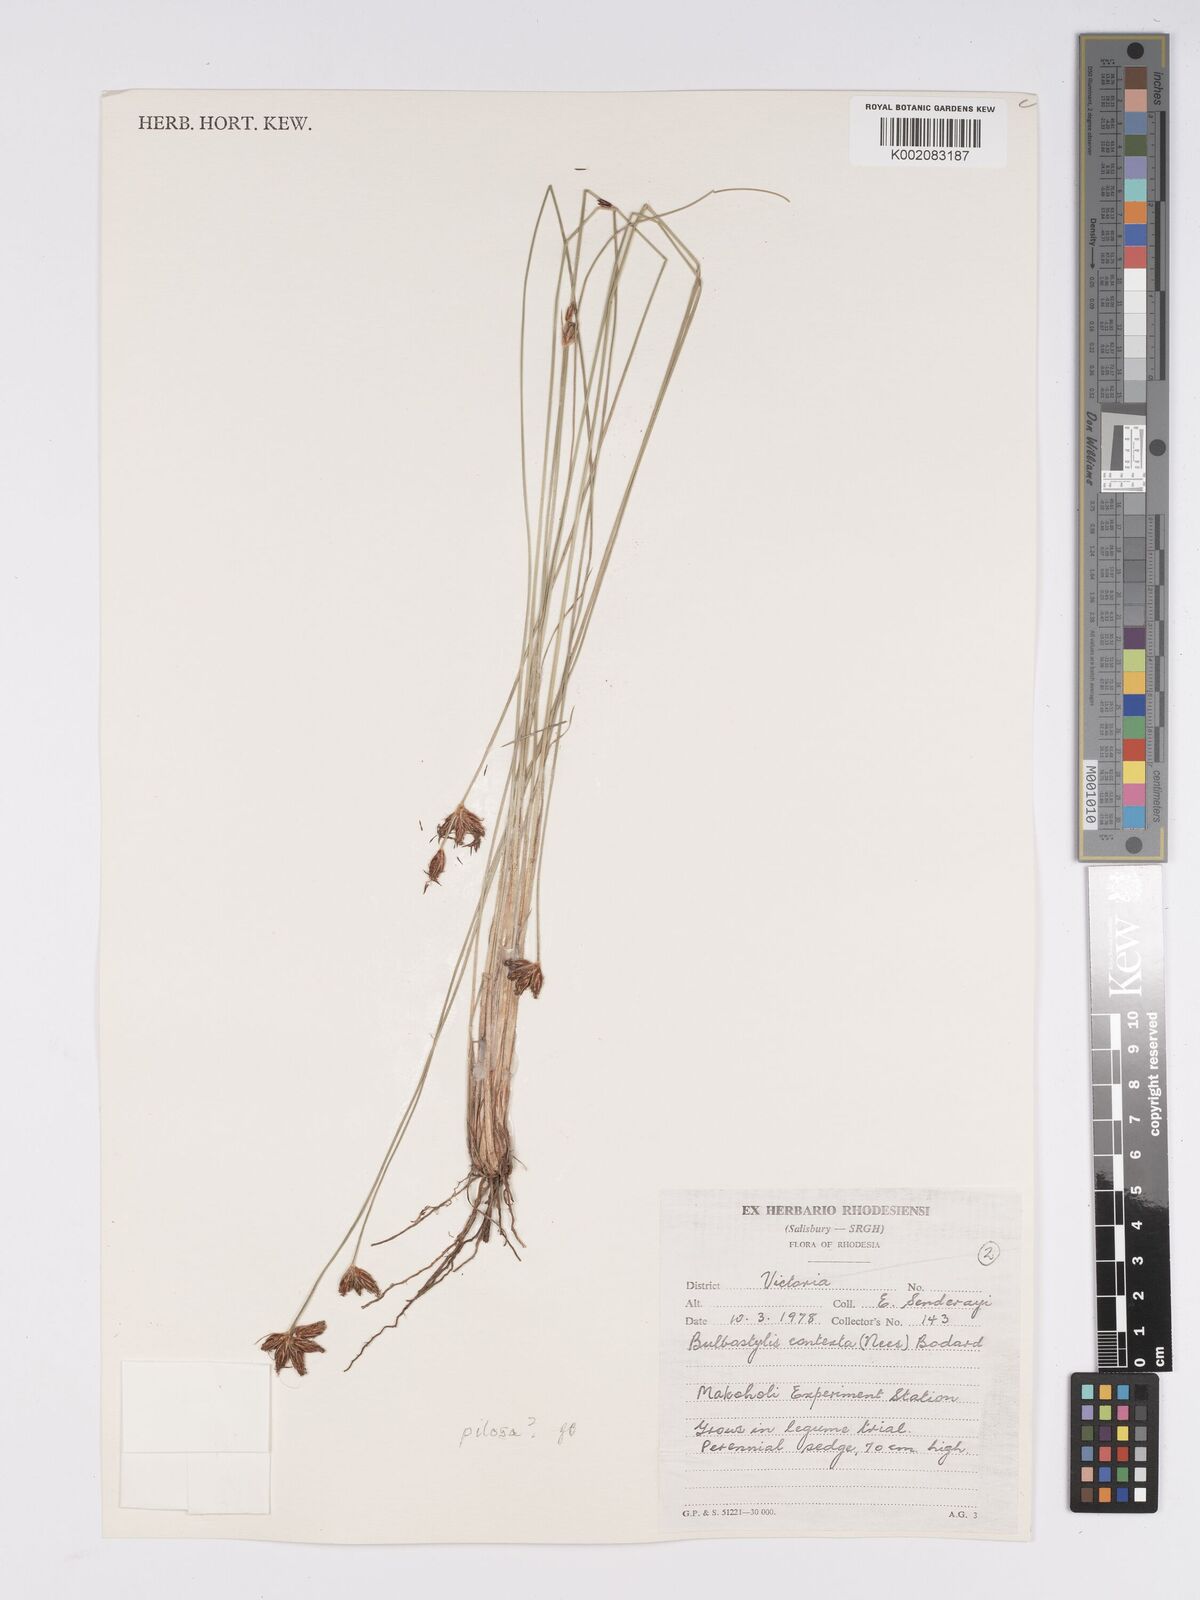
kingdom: Plantae
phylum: Tracheophyta
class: Liliopsida
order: Poales
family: Cyperaceae
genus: Bulbostylis
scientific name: Bulbostylis contexta
